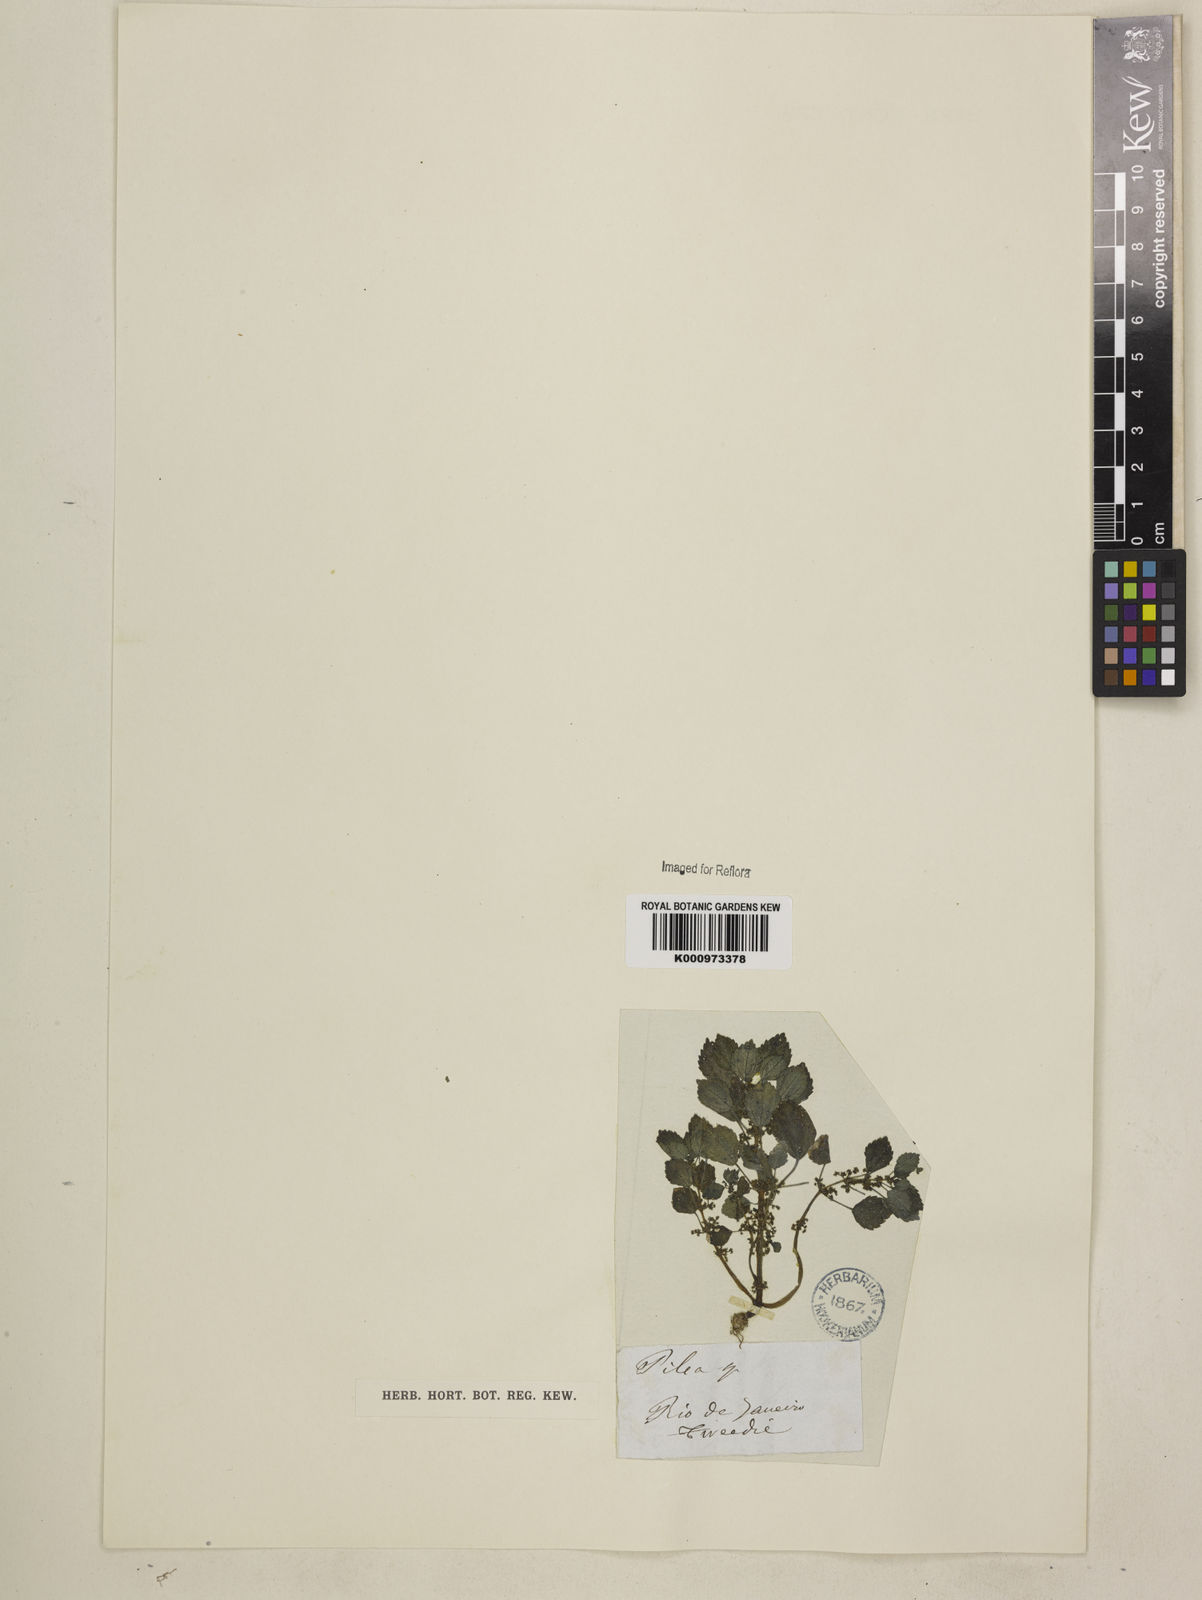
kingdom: Plantae
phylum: Tracheophyta
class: Magnoliopsida
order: Rosales
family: Urticaceae
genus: Pilea
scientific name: Pilea hyalina
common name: Virdrillo
